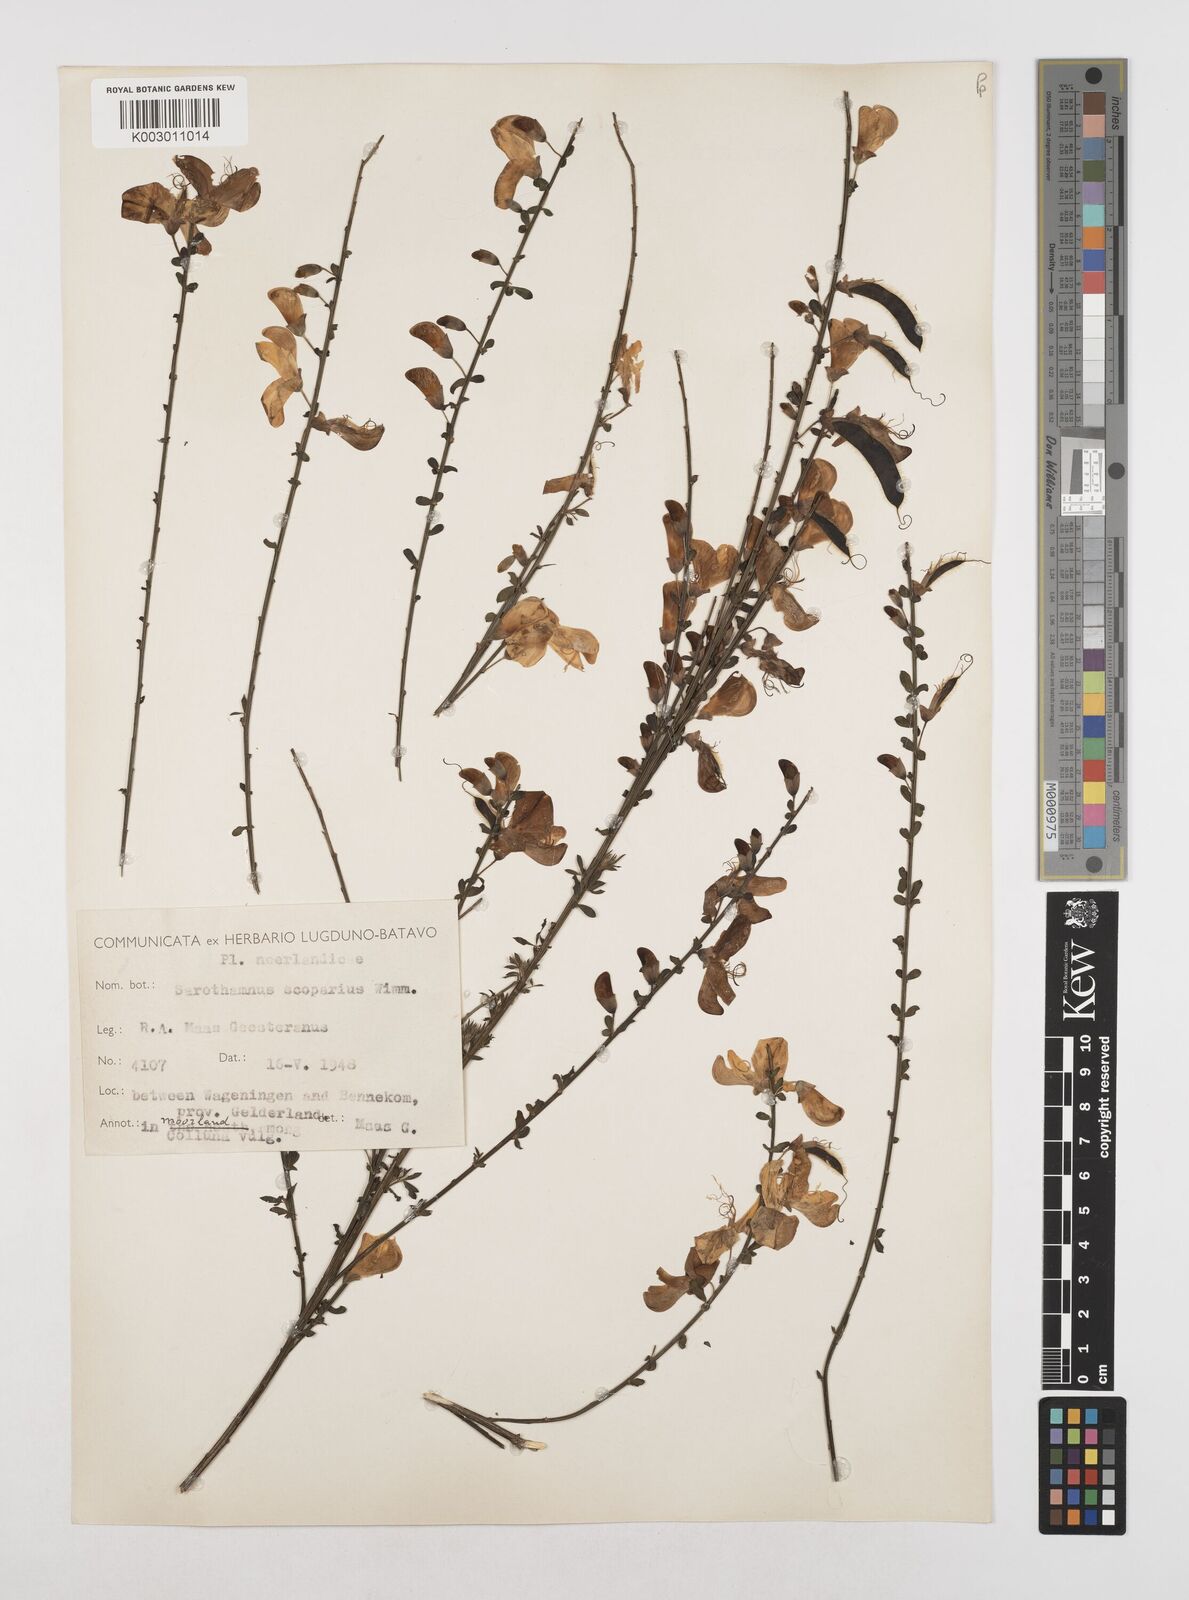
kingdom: Plantae
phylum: Tracheophyta
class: Magnoliopsida
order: Fabales
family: Fabaceae
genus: Cytisus
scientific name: Cytisus scoparius
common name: Scotch broom
